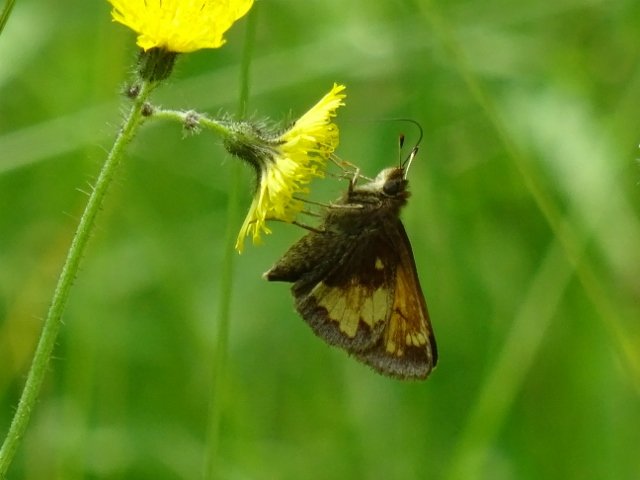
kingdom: Animalia
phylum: Arthropoda
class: Insecta
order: Lepidoptera
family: Hesperiidae
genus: Lon
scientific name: Lon hobomok
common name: Hobomok Skipper
